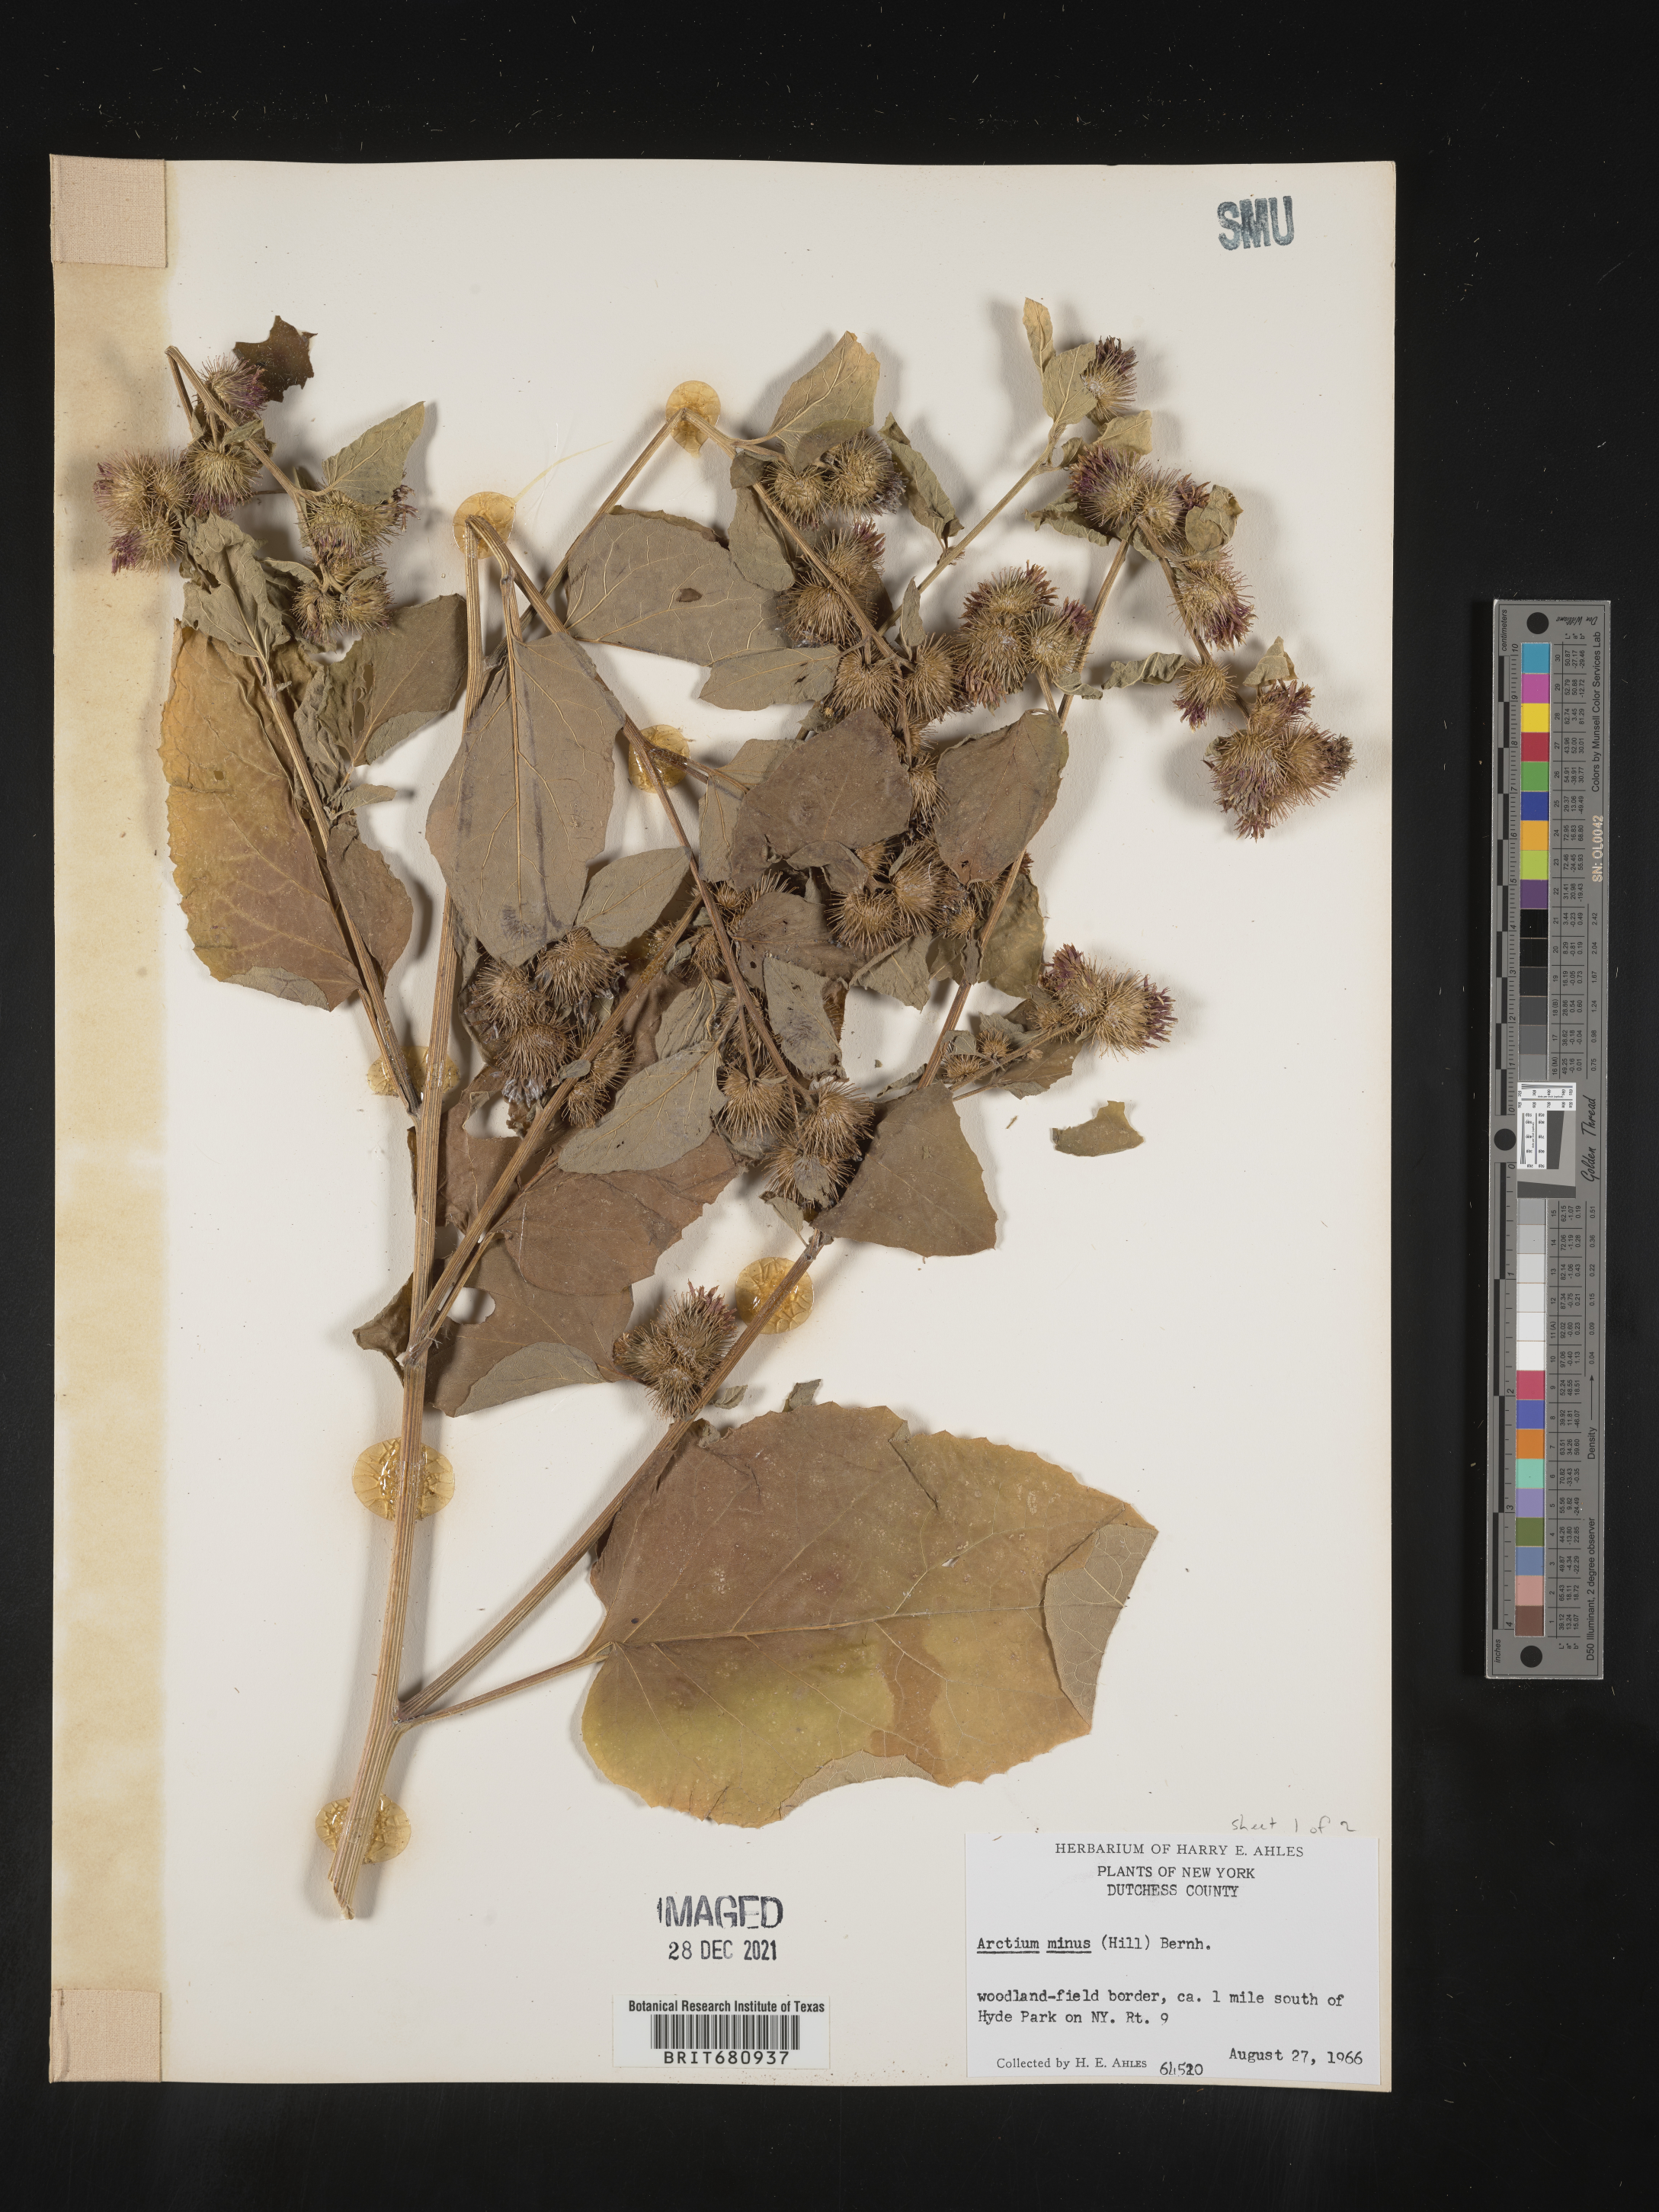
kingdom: Plantae
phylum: Tracheophyta
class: Magnoliopsida
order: Asterales
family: Asteraceae
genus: Arctium
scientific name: Arctium minus
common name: Lesser burdock
